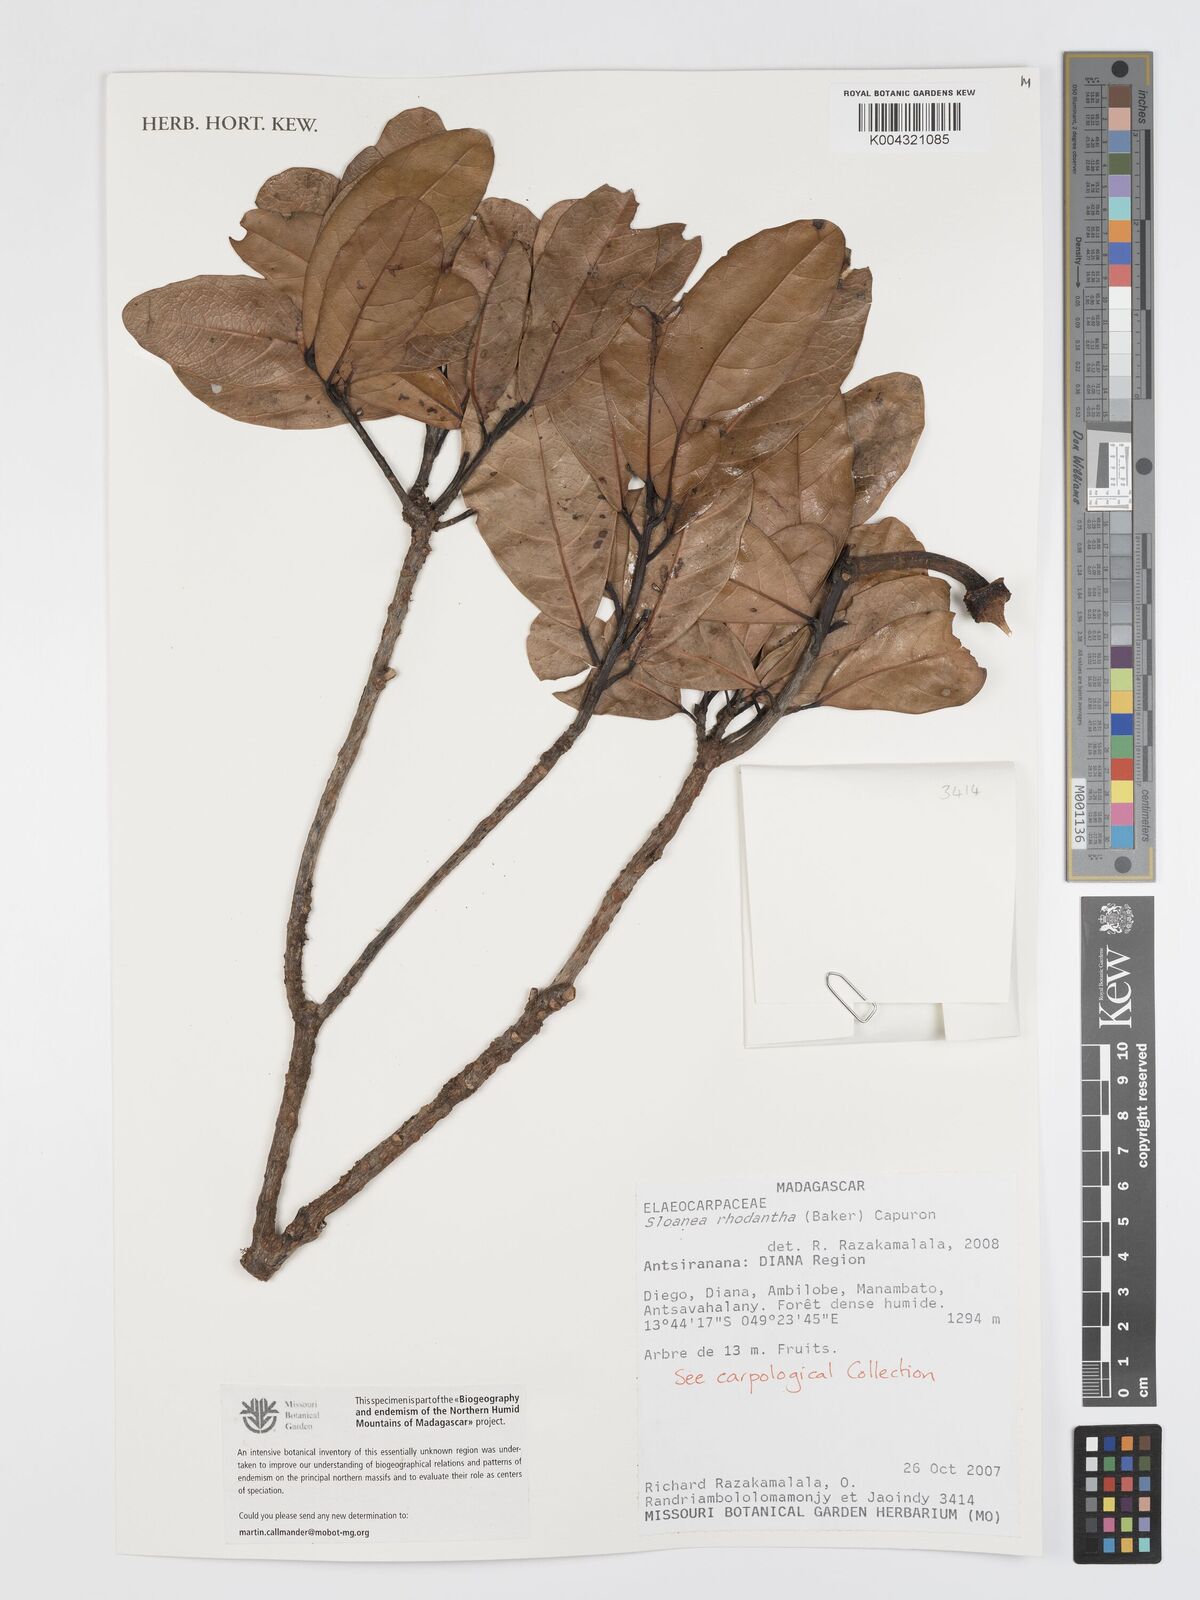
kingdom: Plantae
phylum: Tracheophyta
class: Magnoliopsida
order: Oxalidales
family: Elaeocarpaceae
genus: Sloanea
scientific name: Sloanea rhodantha
